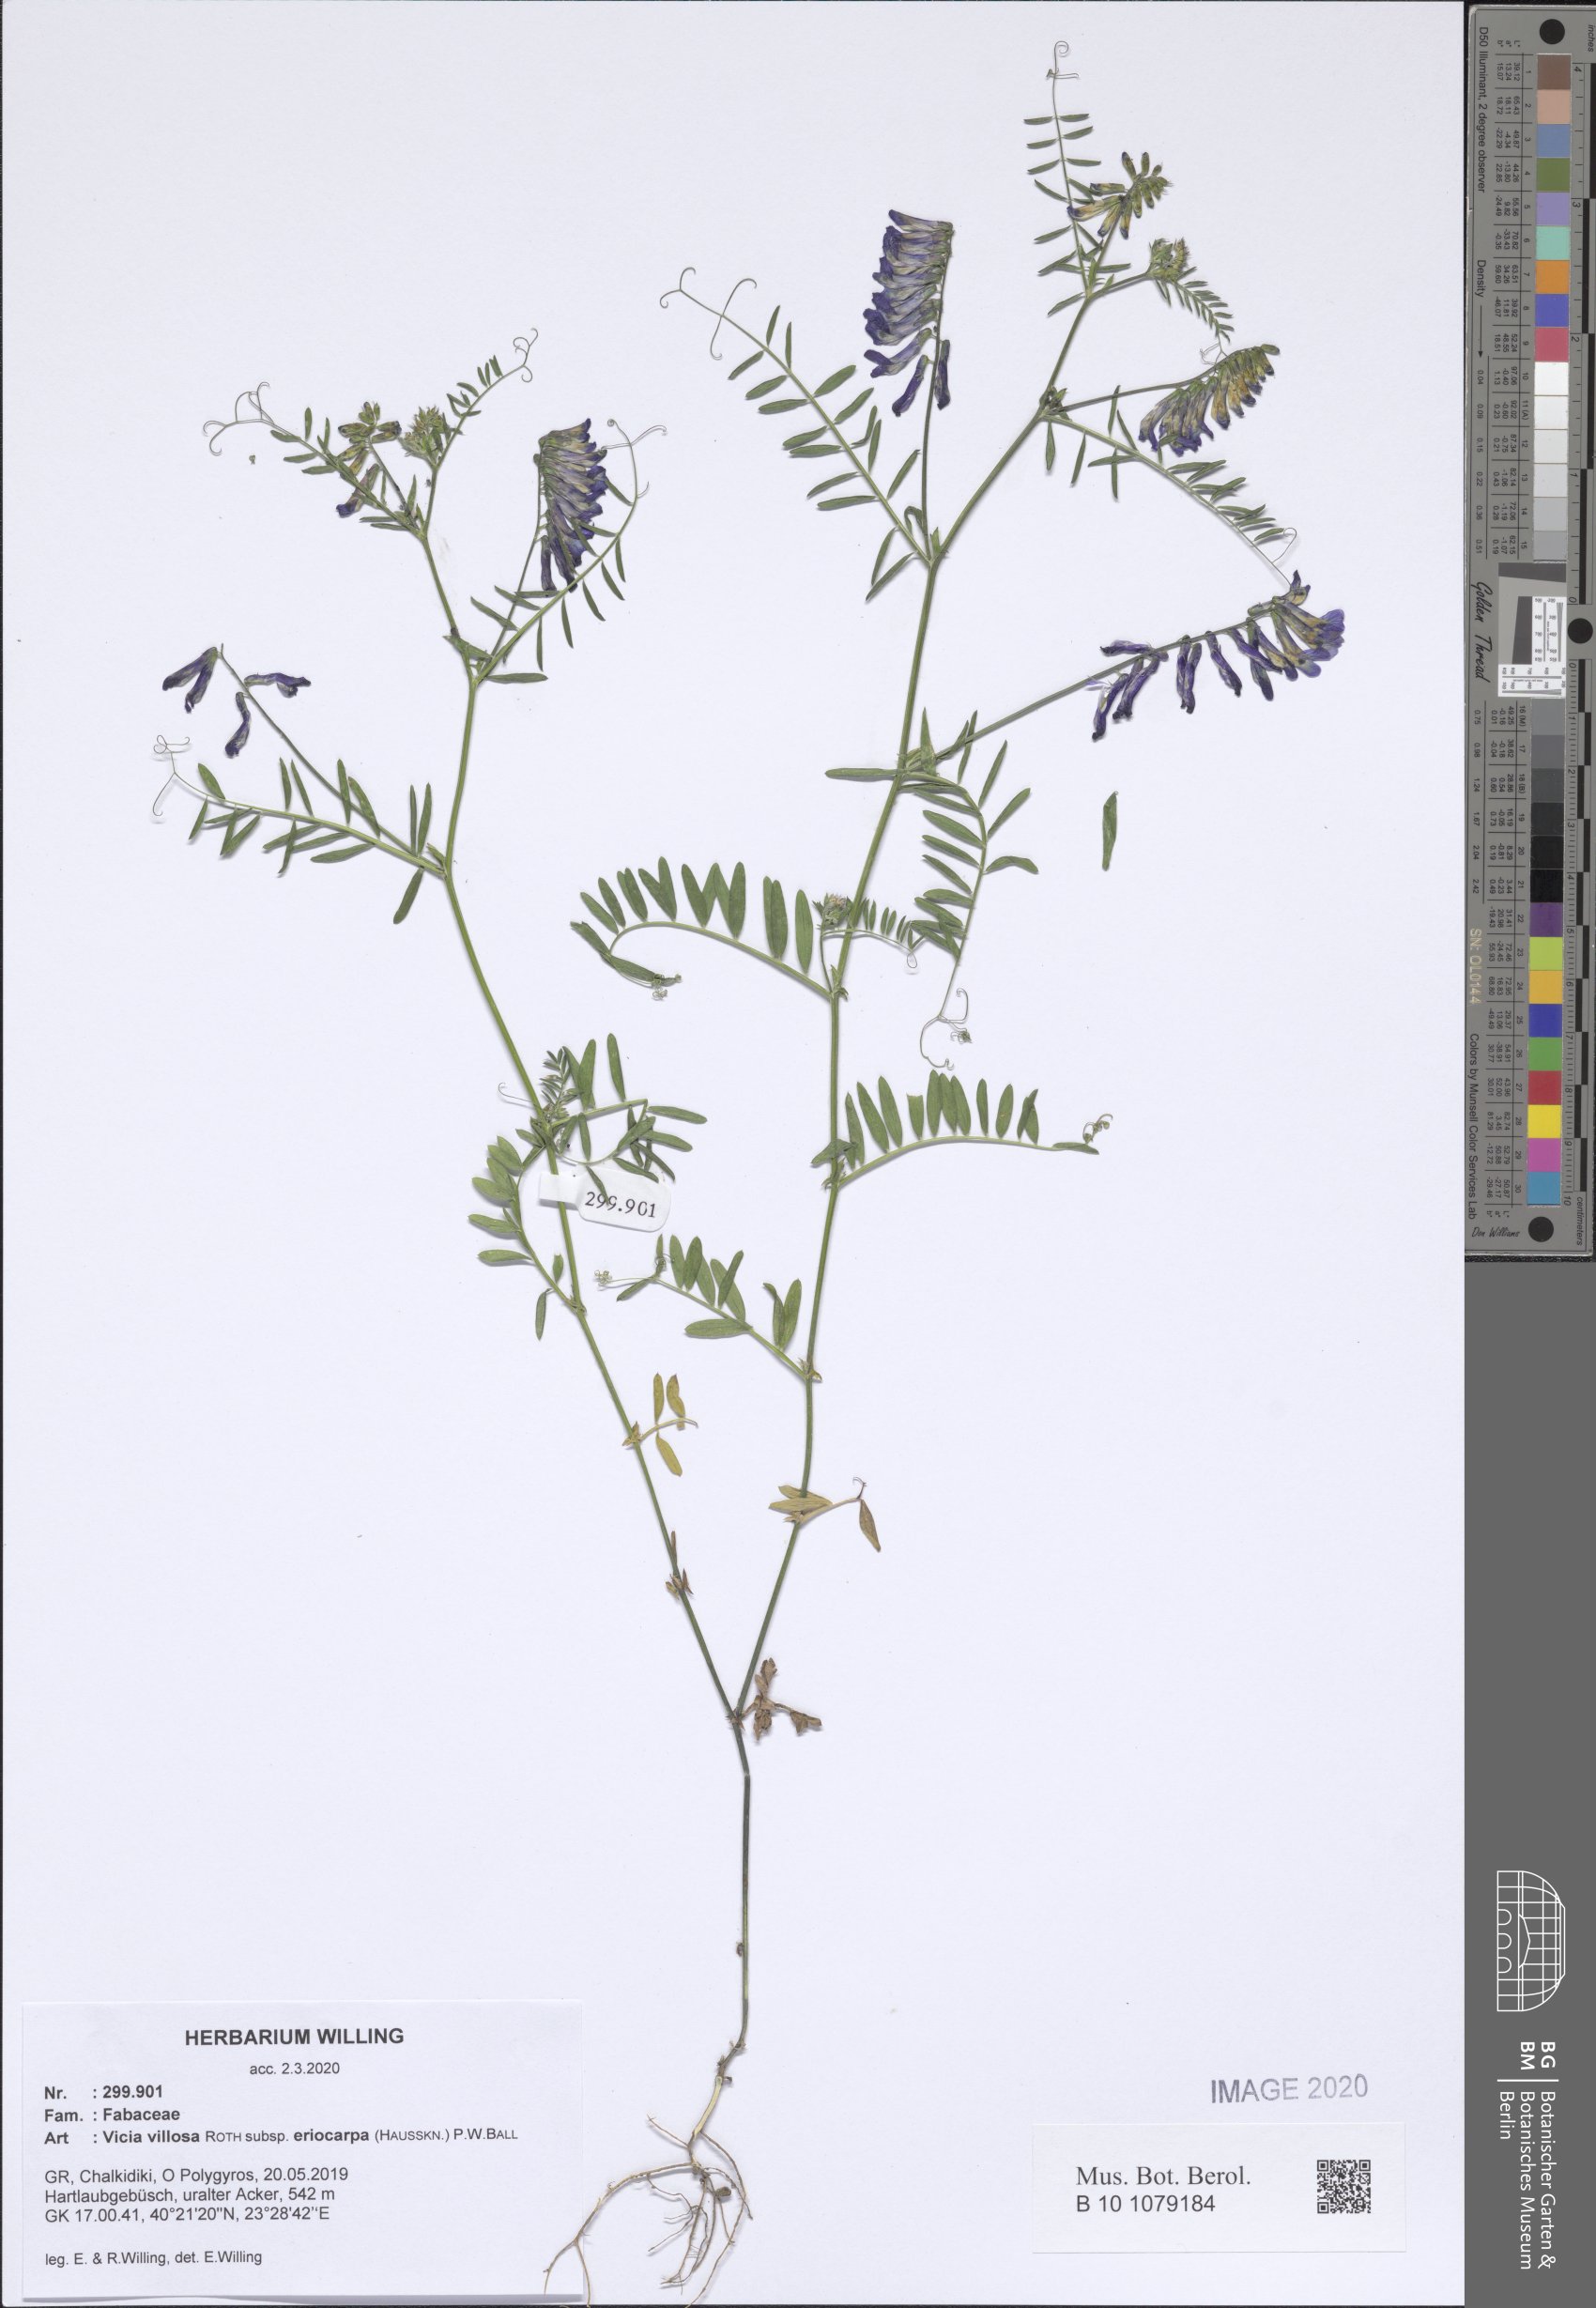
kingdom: Plantae
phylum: Tracheophyta
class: Magnoliopsida
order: Fabales
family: Fabaceae
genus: Vicia
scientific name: Vicia eriocarpa
